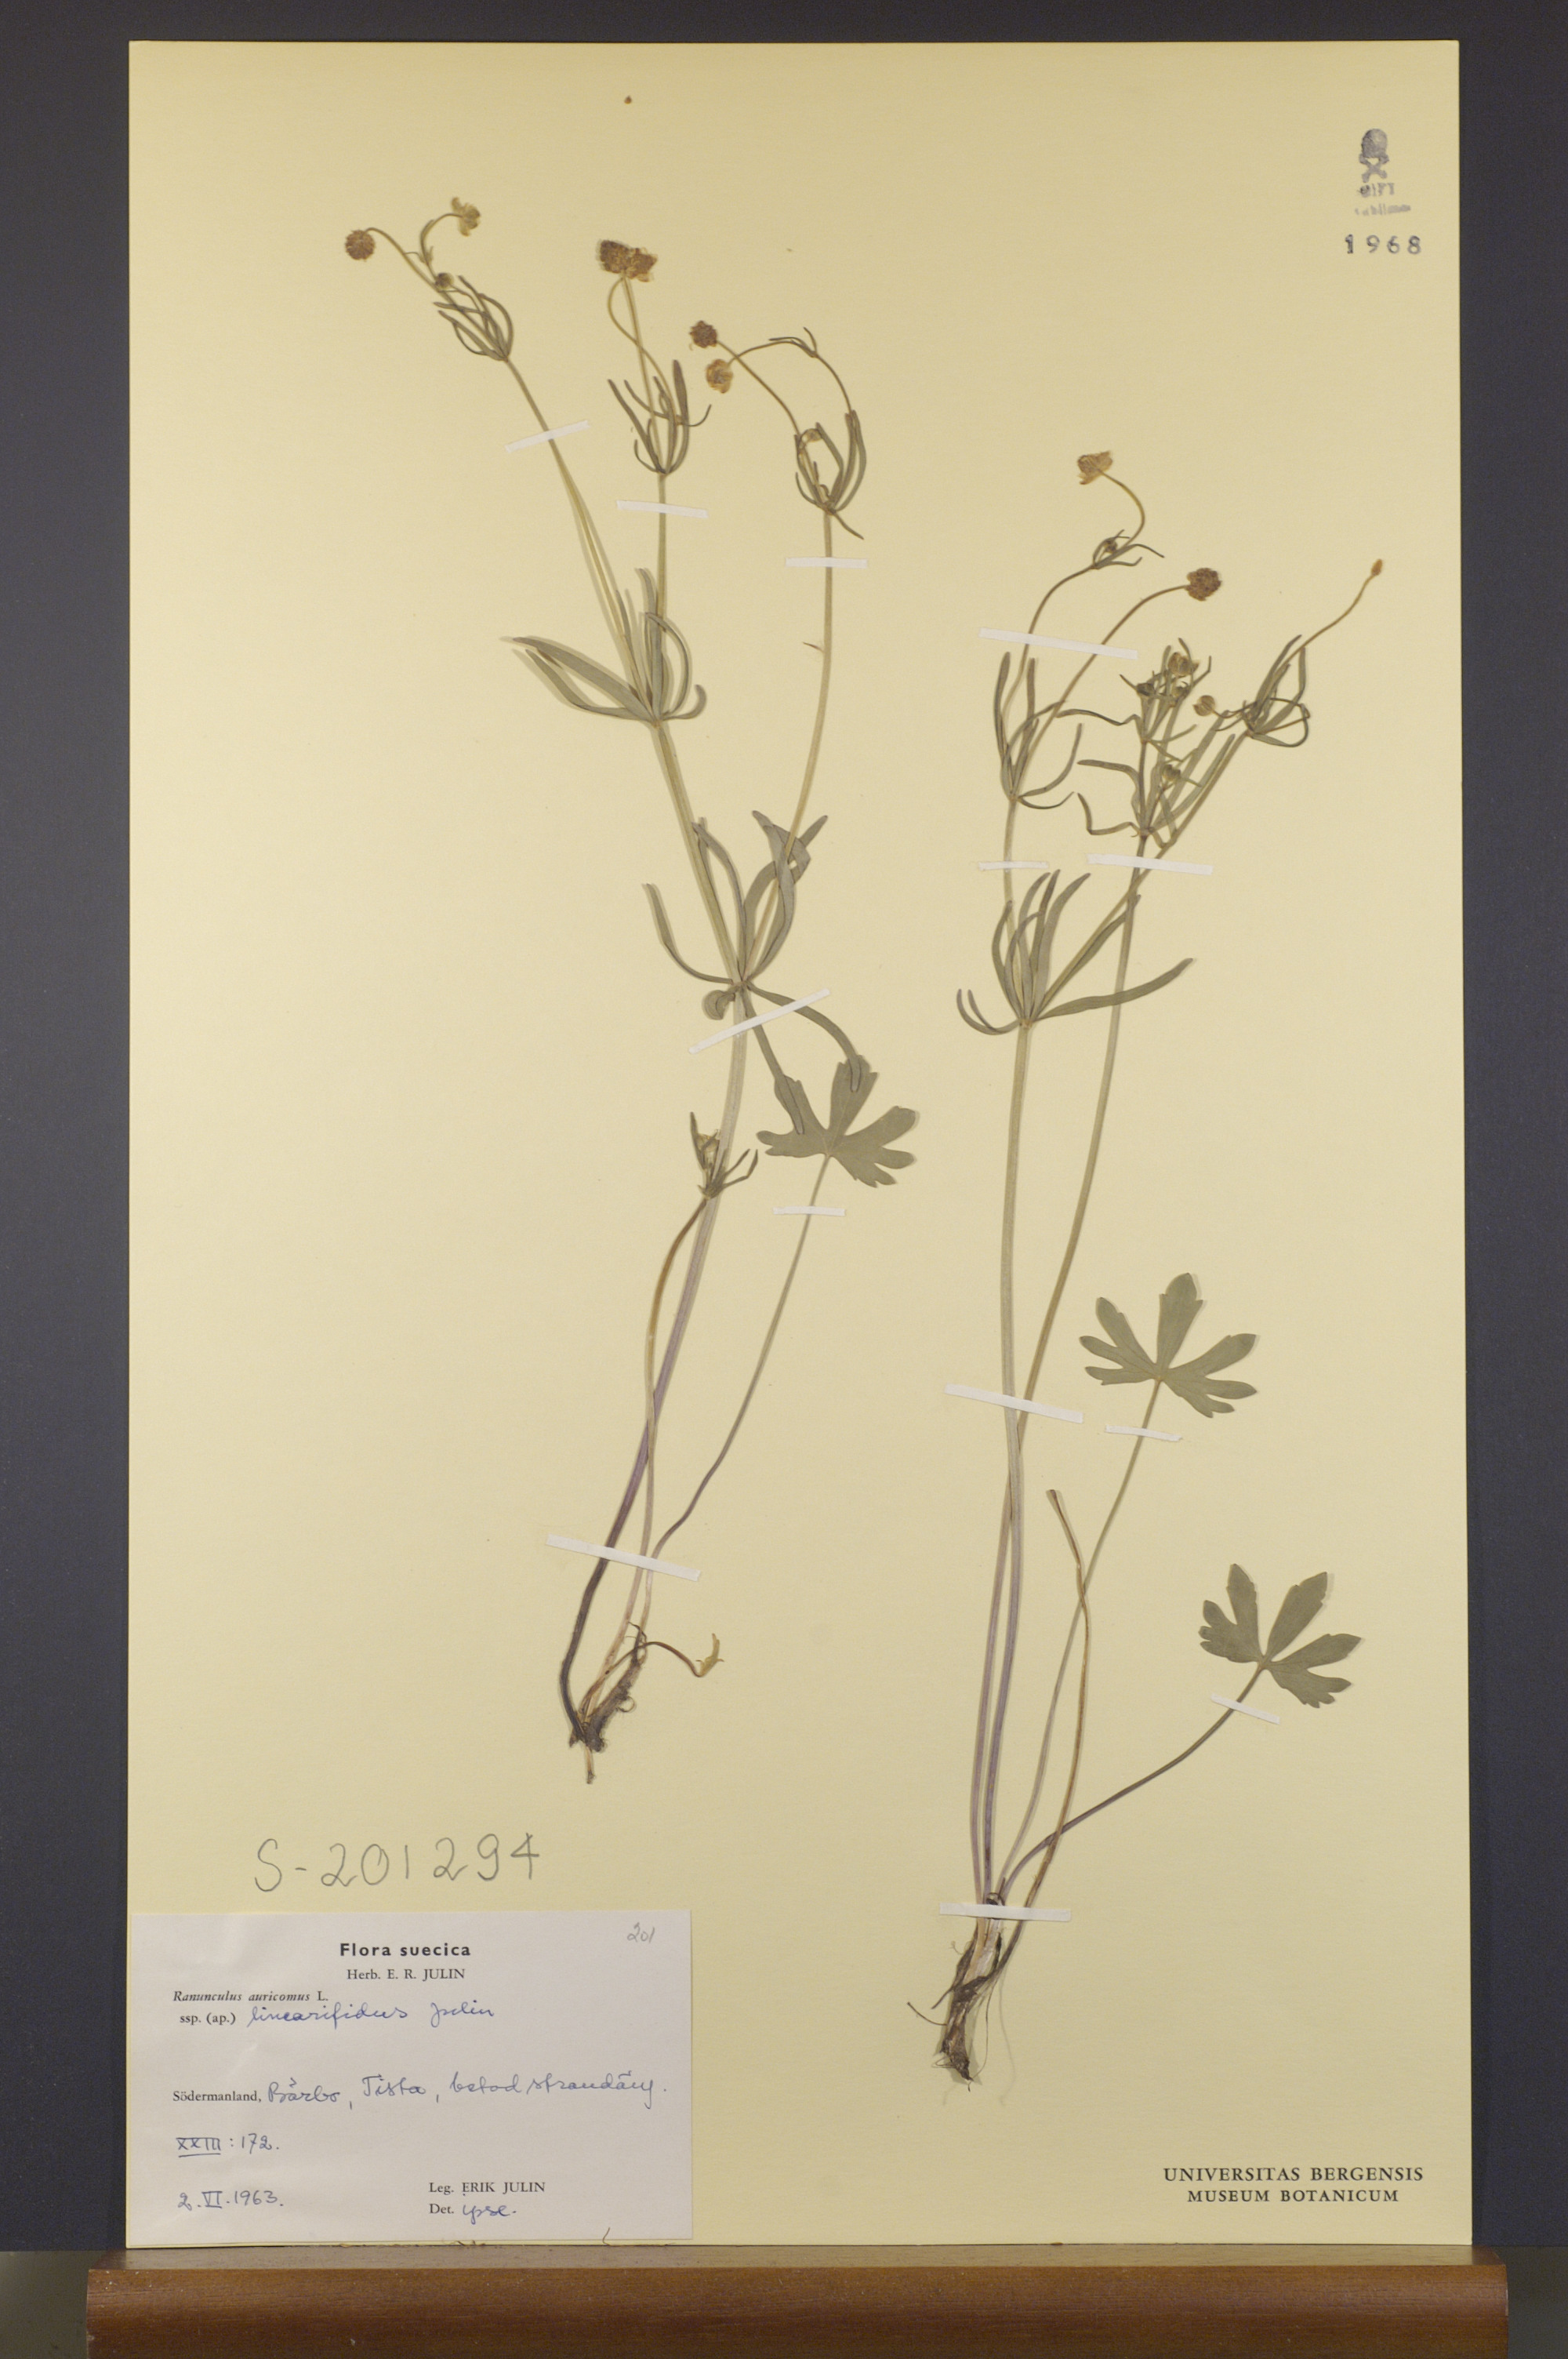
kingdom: Plantae
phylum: Tracheophyta
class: Magnoliopsida
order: Ranunculales
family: Ranunculaceae
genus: Ranunculus
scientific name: Ranunculus linearifidus
